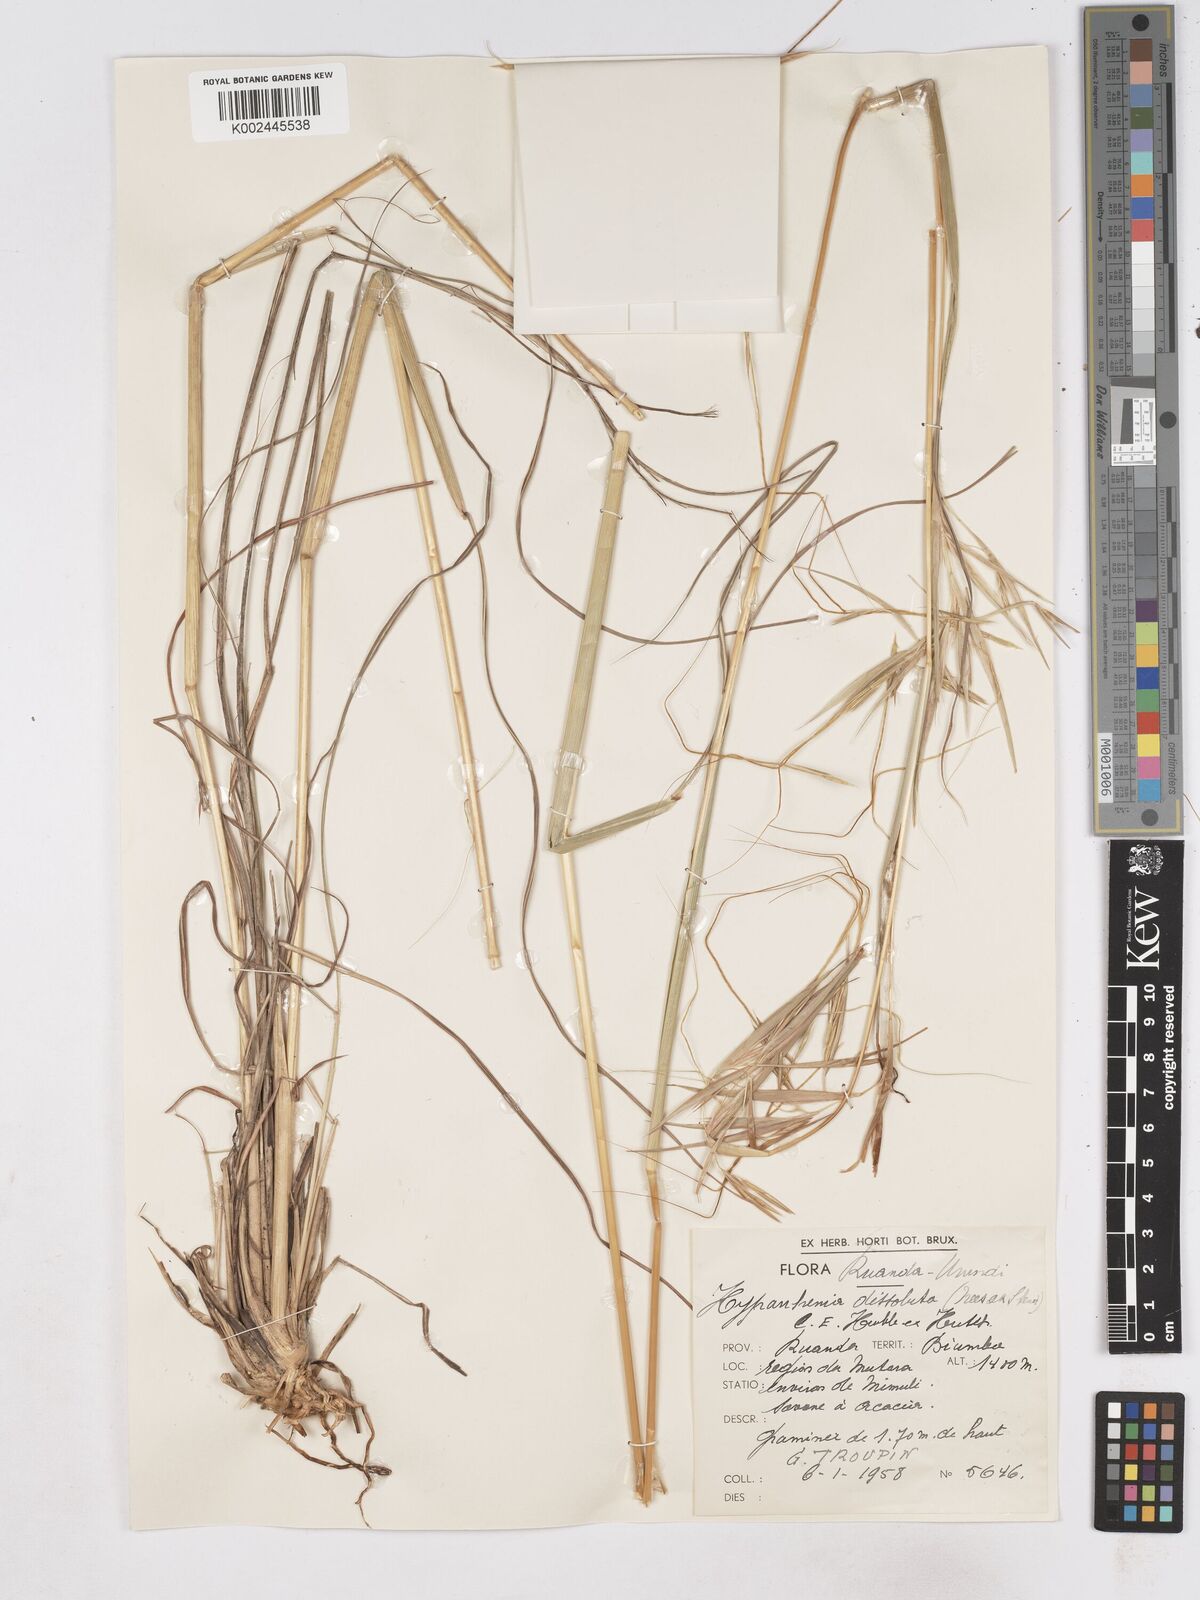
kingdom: Plantae
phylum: Tracheophyta
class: Liliopsida
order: Poales
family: Poaceae
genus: Hyperthelia
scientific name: Hyperthelia dissoluta
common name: Yellow thatching grass
